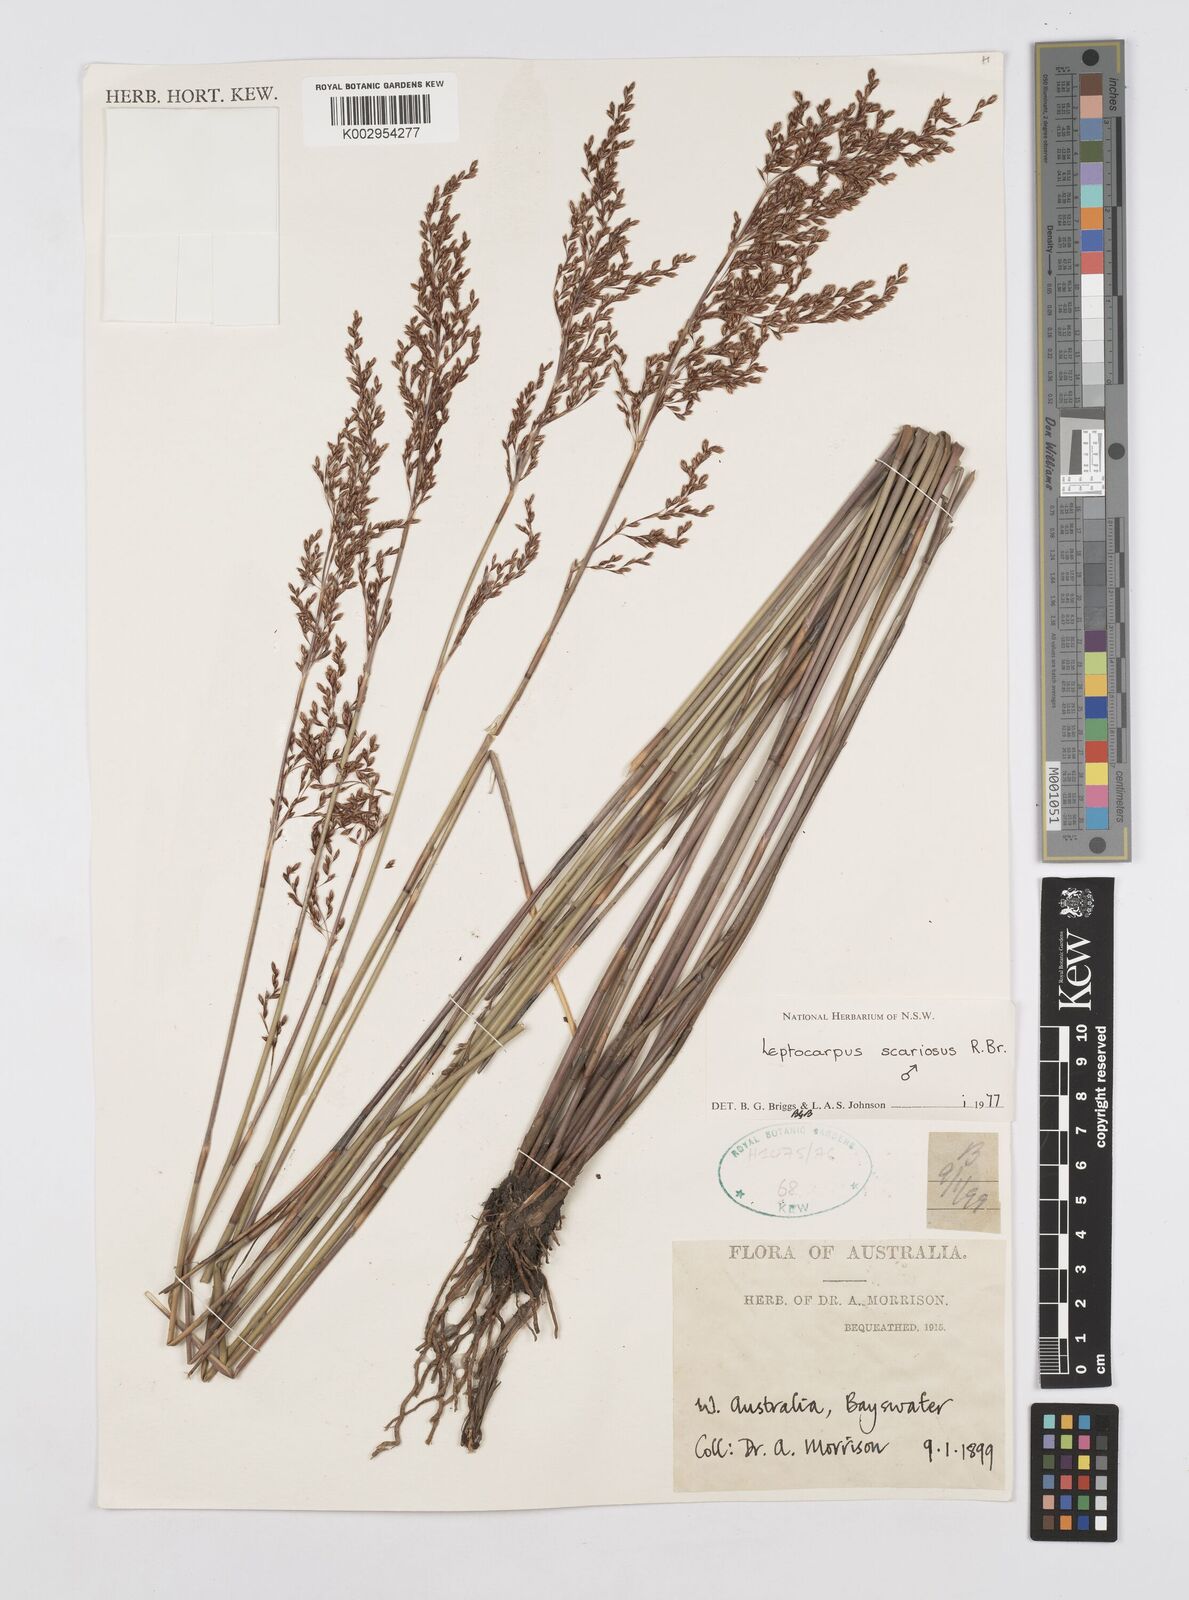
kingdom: Plantae
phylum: Tracheophyta
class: Liliopsida
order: Poales
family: Restionaceae
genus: Leptocarpus
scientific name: Leptocarpus scariosus
